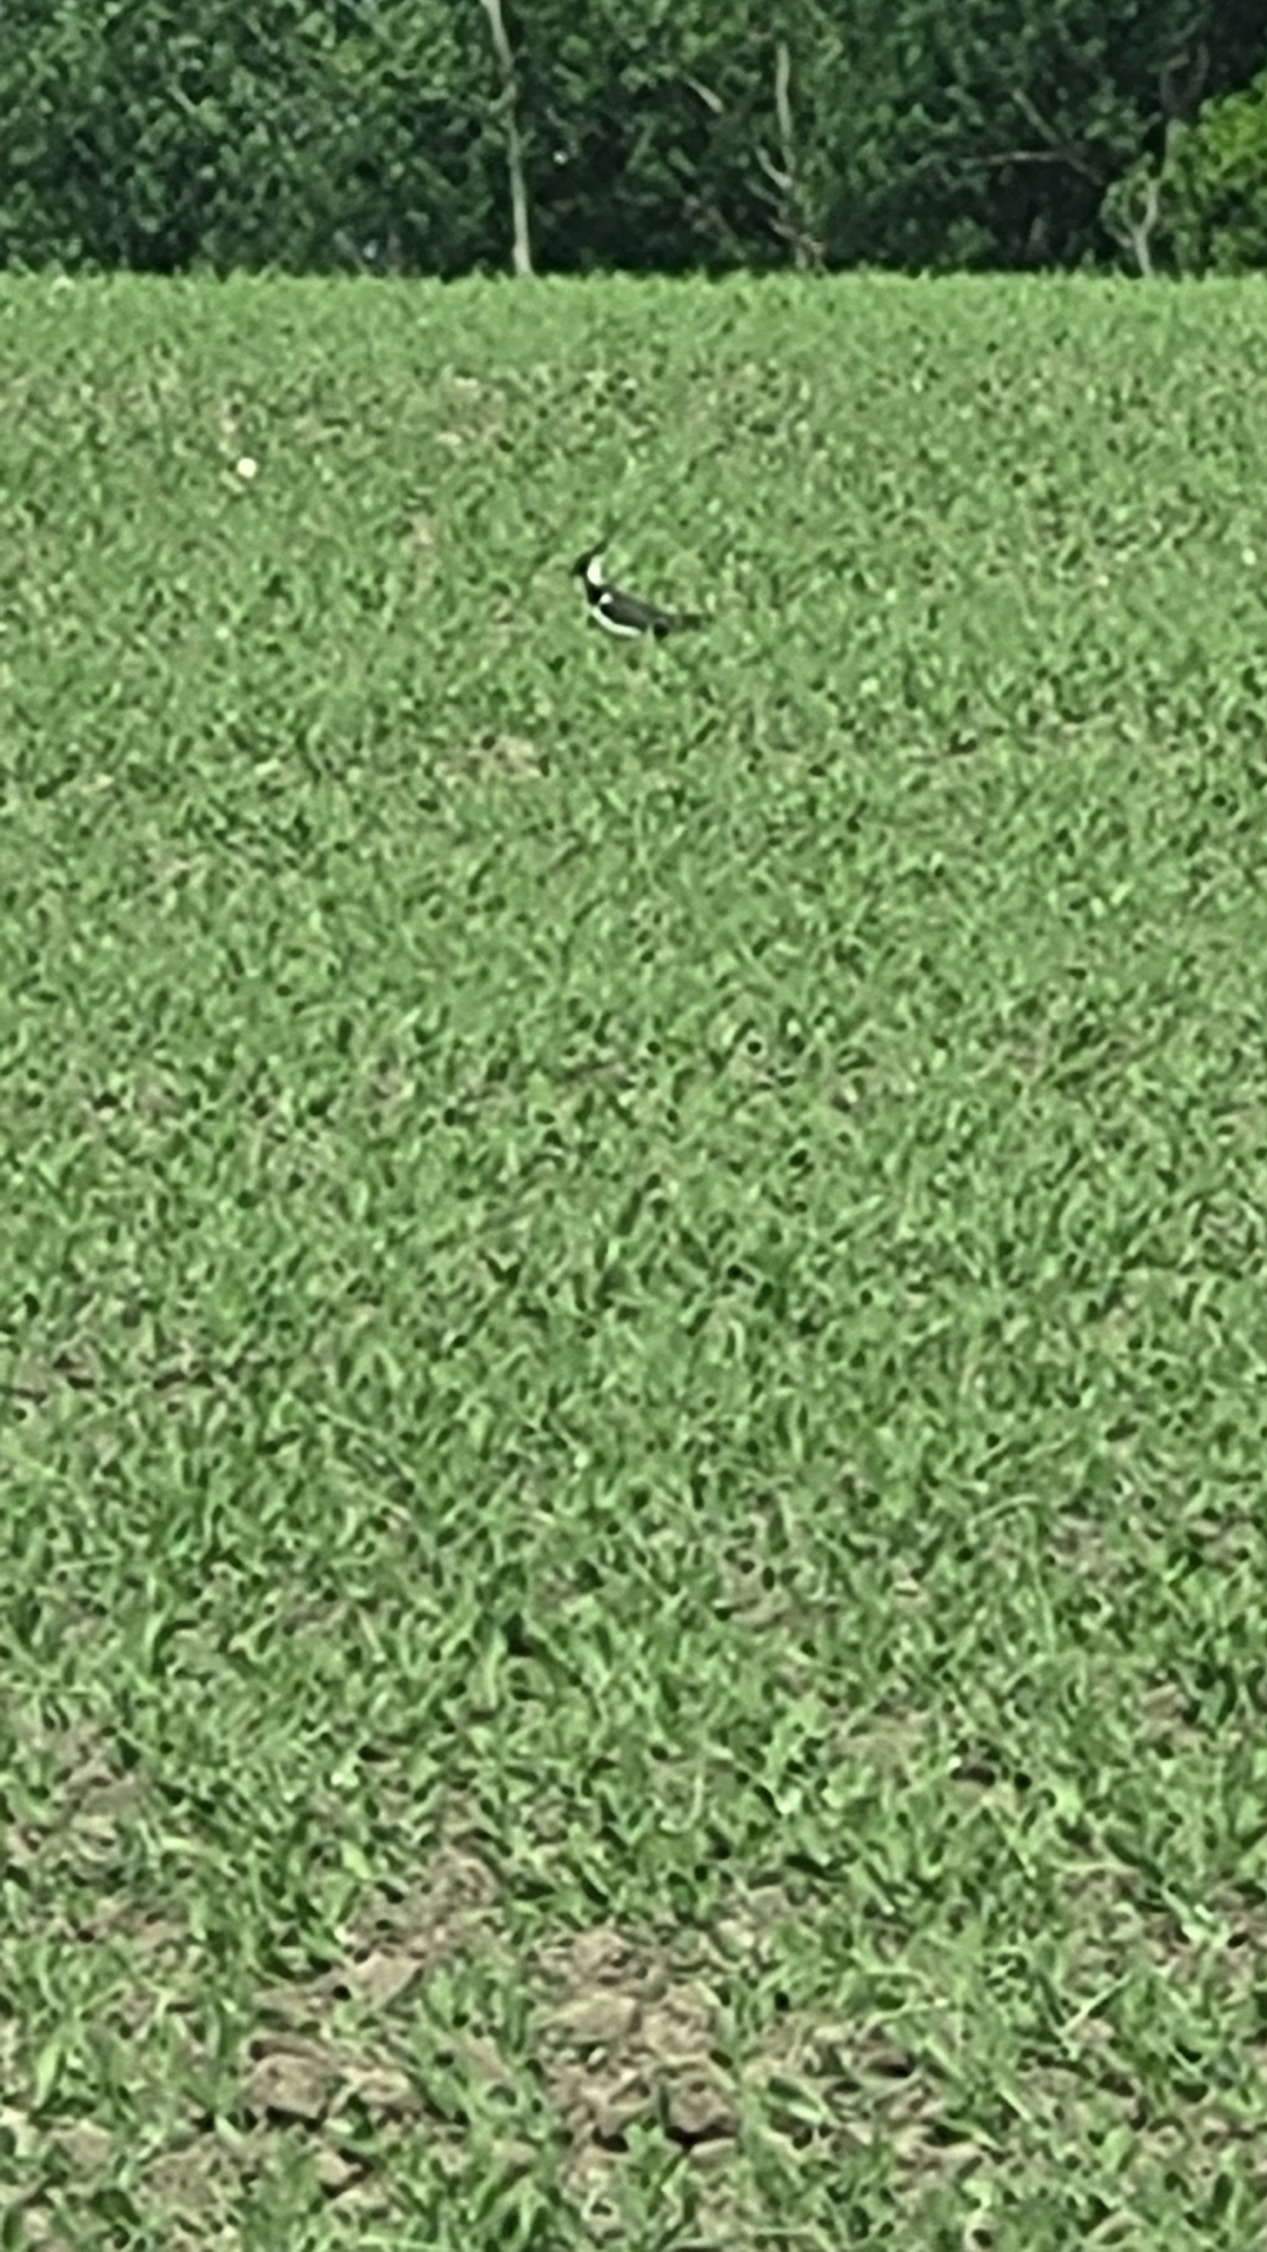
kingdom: Animalia
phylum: Chordata
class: Aves
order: Charadriiformes
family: Charadriidae
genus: Vanellus
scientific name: Vanellus vanellus
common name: Vibe
